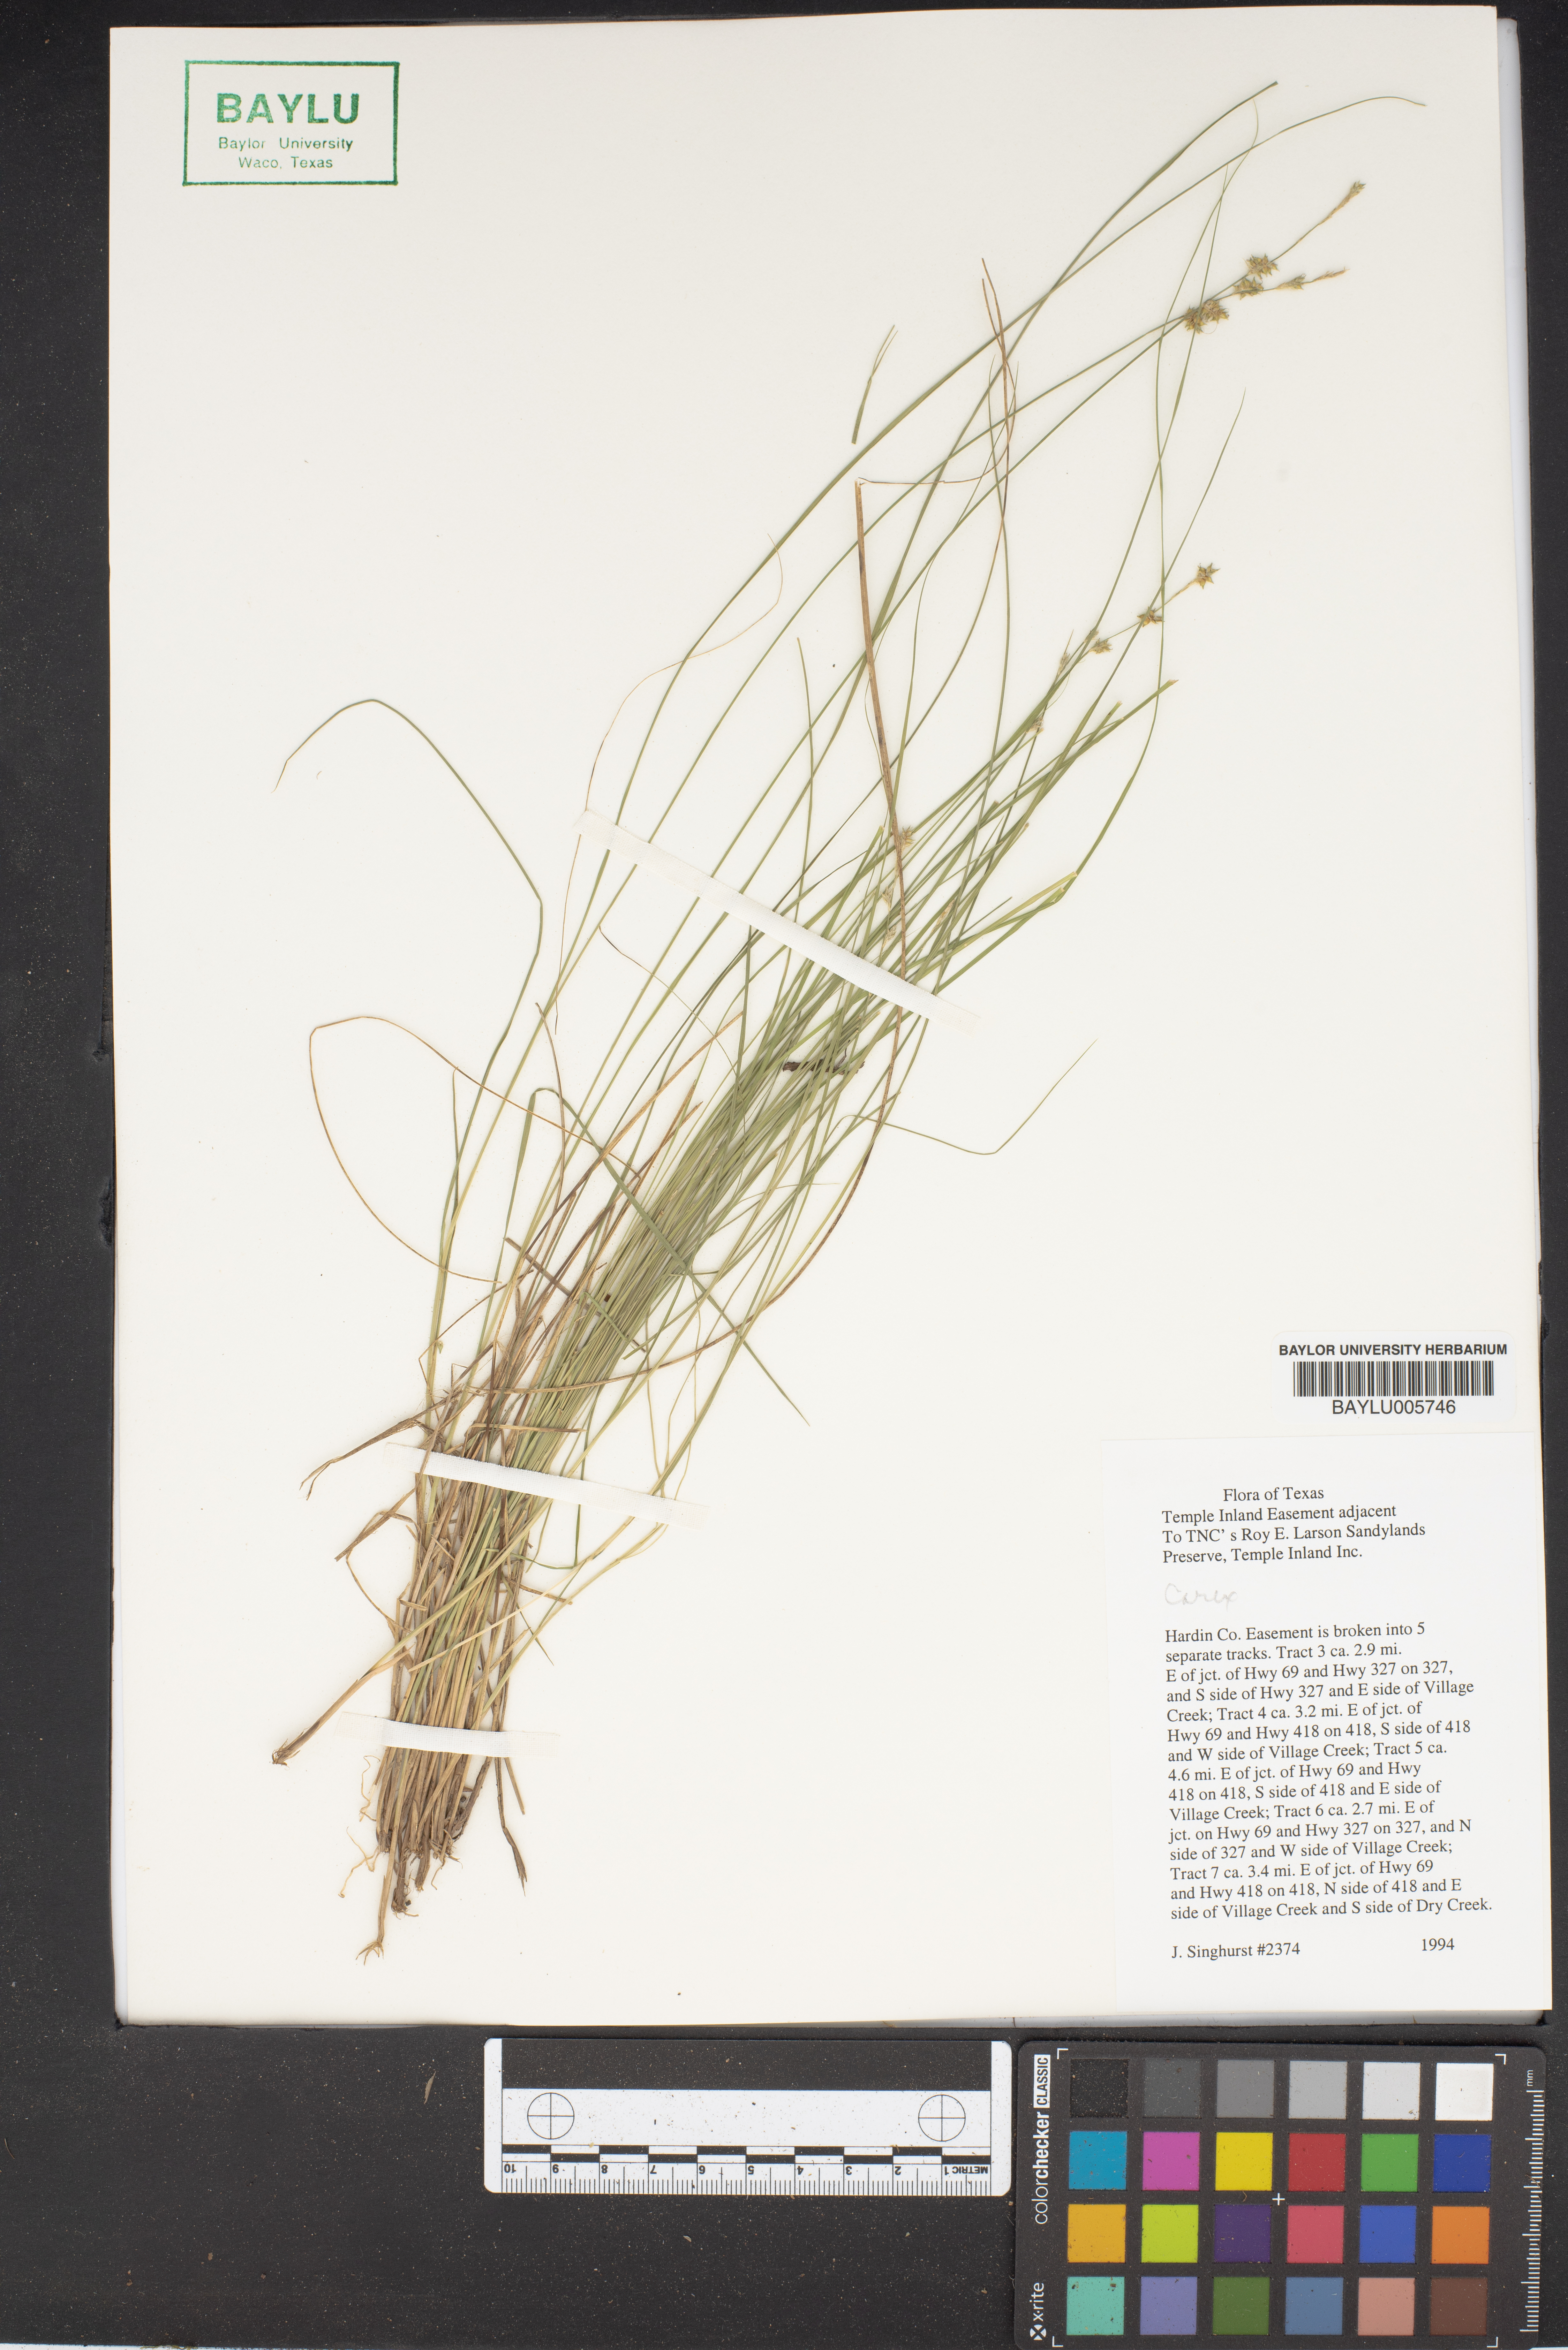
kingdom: Plantae
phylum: Tracheophyta
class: Liliopsida
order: Poales
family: Cyperaceae
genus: Carex
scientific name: Carex
